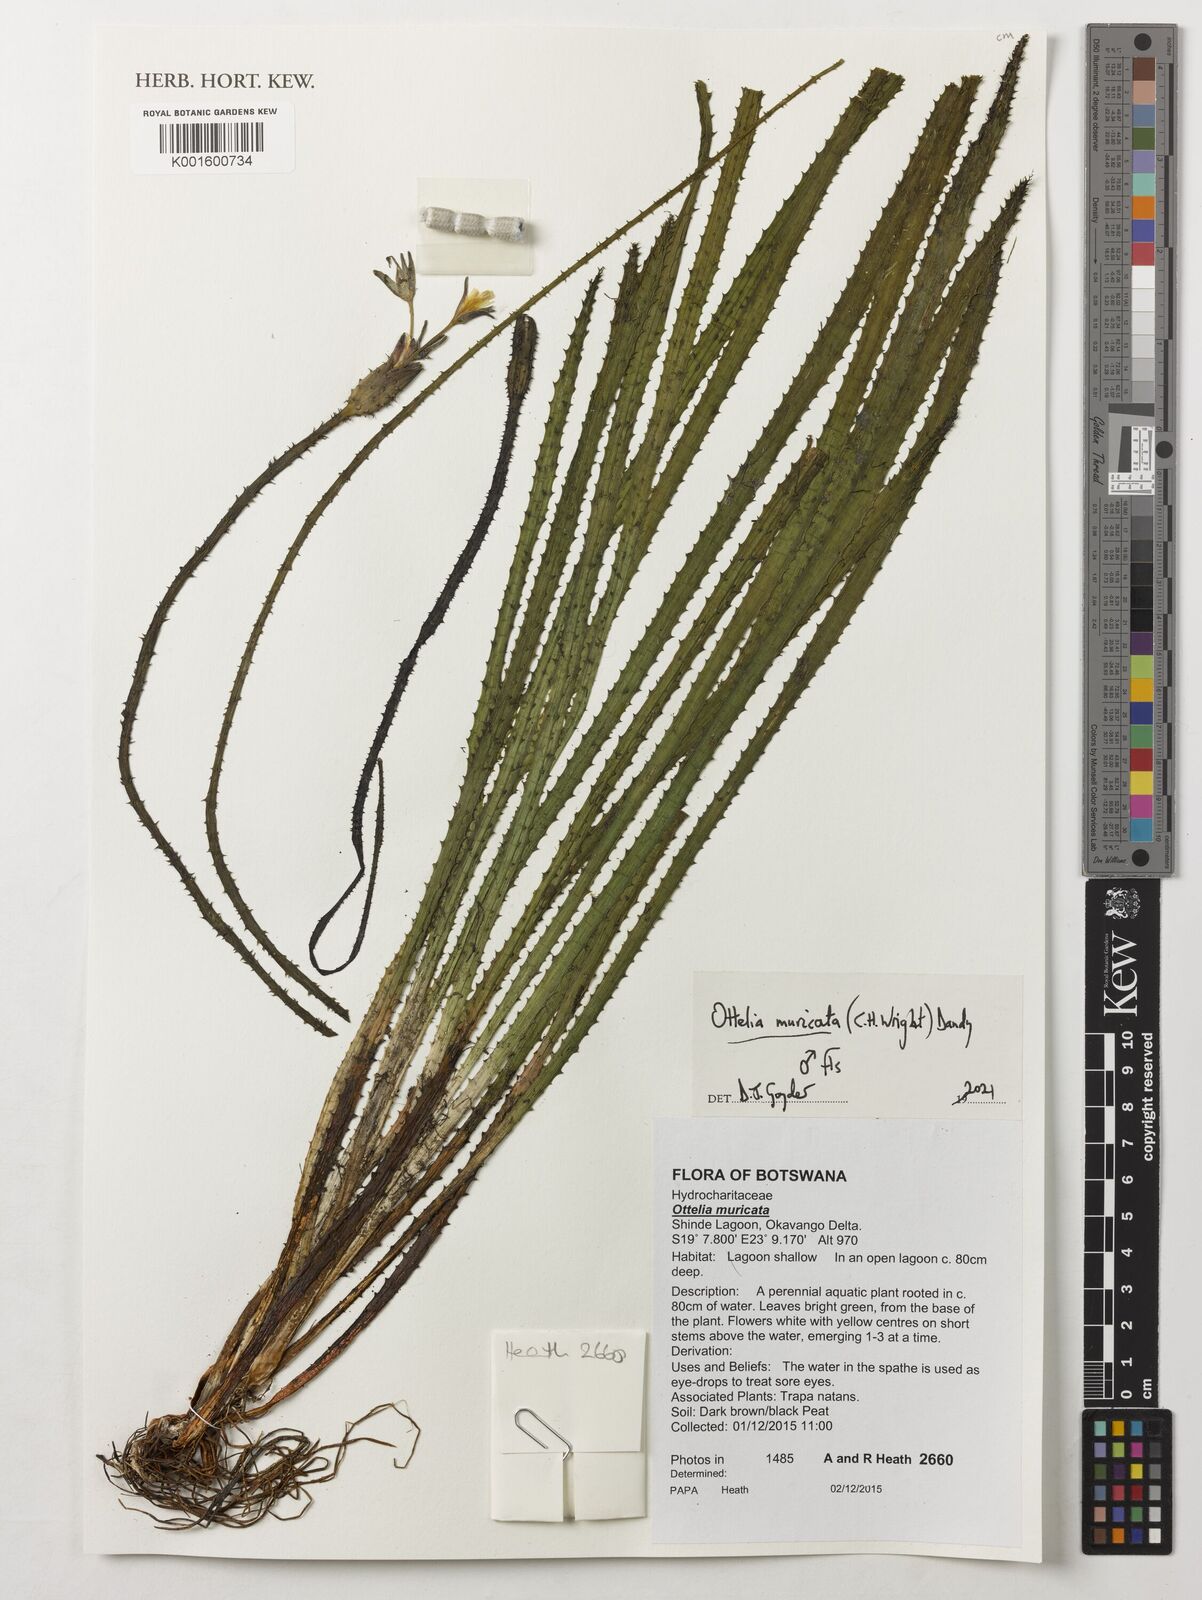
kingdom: Plantae
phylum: Tracheophyta
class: Liliopsida
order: Alismatales
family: Hydrocharitaceae
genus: Ottelia
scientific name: Ottelia muricata
